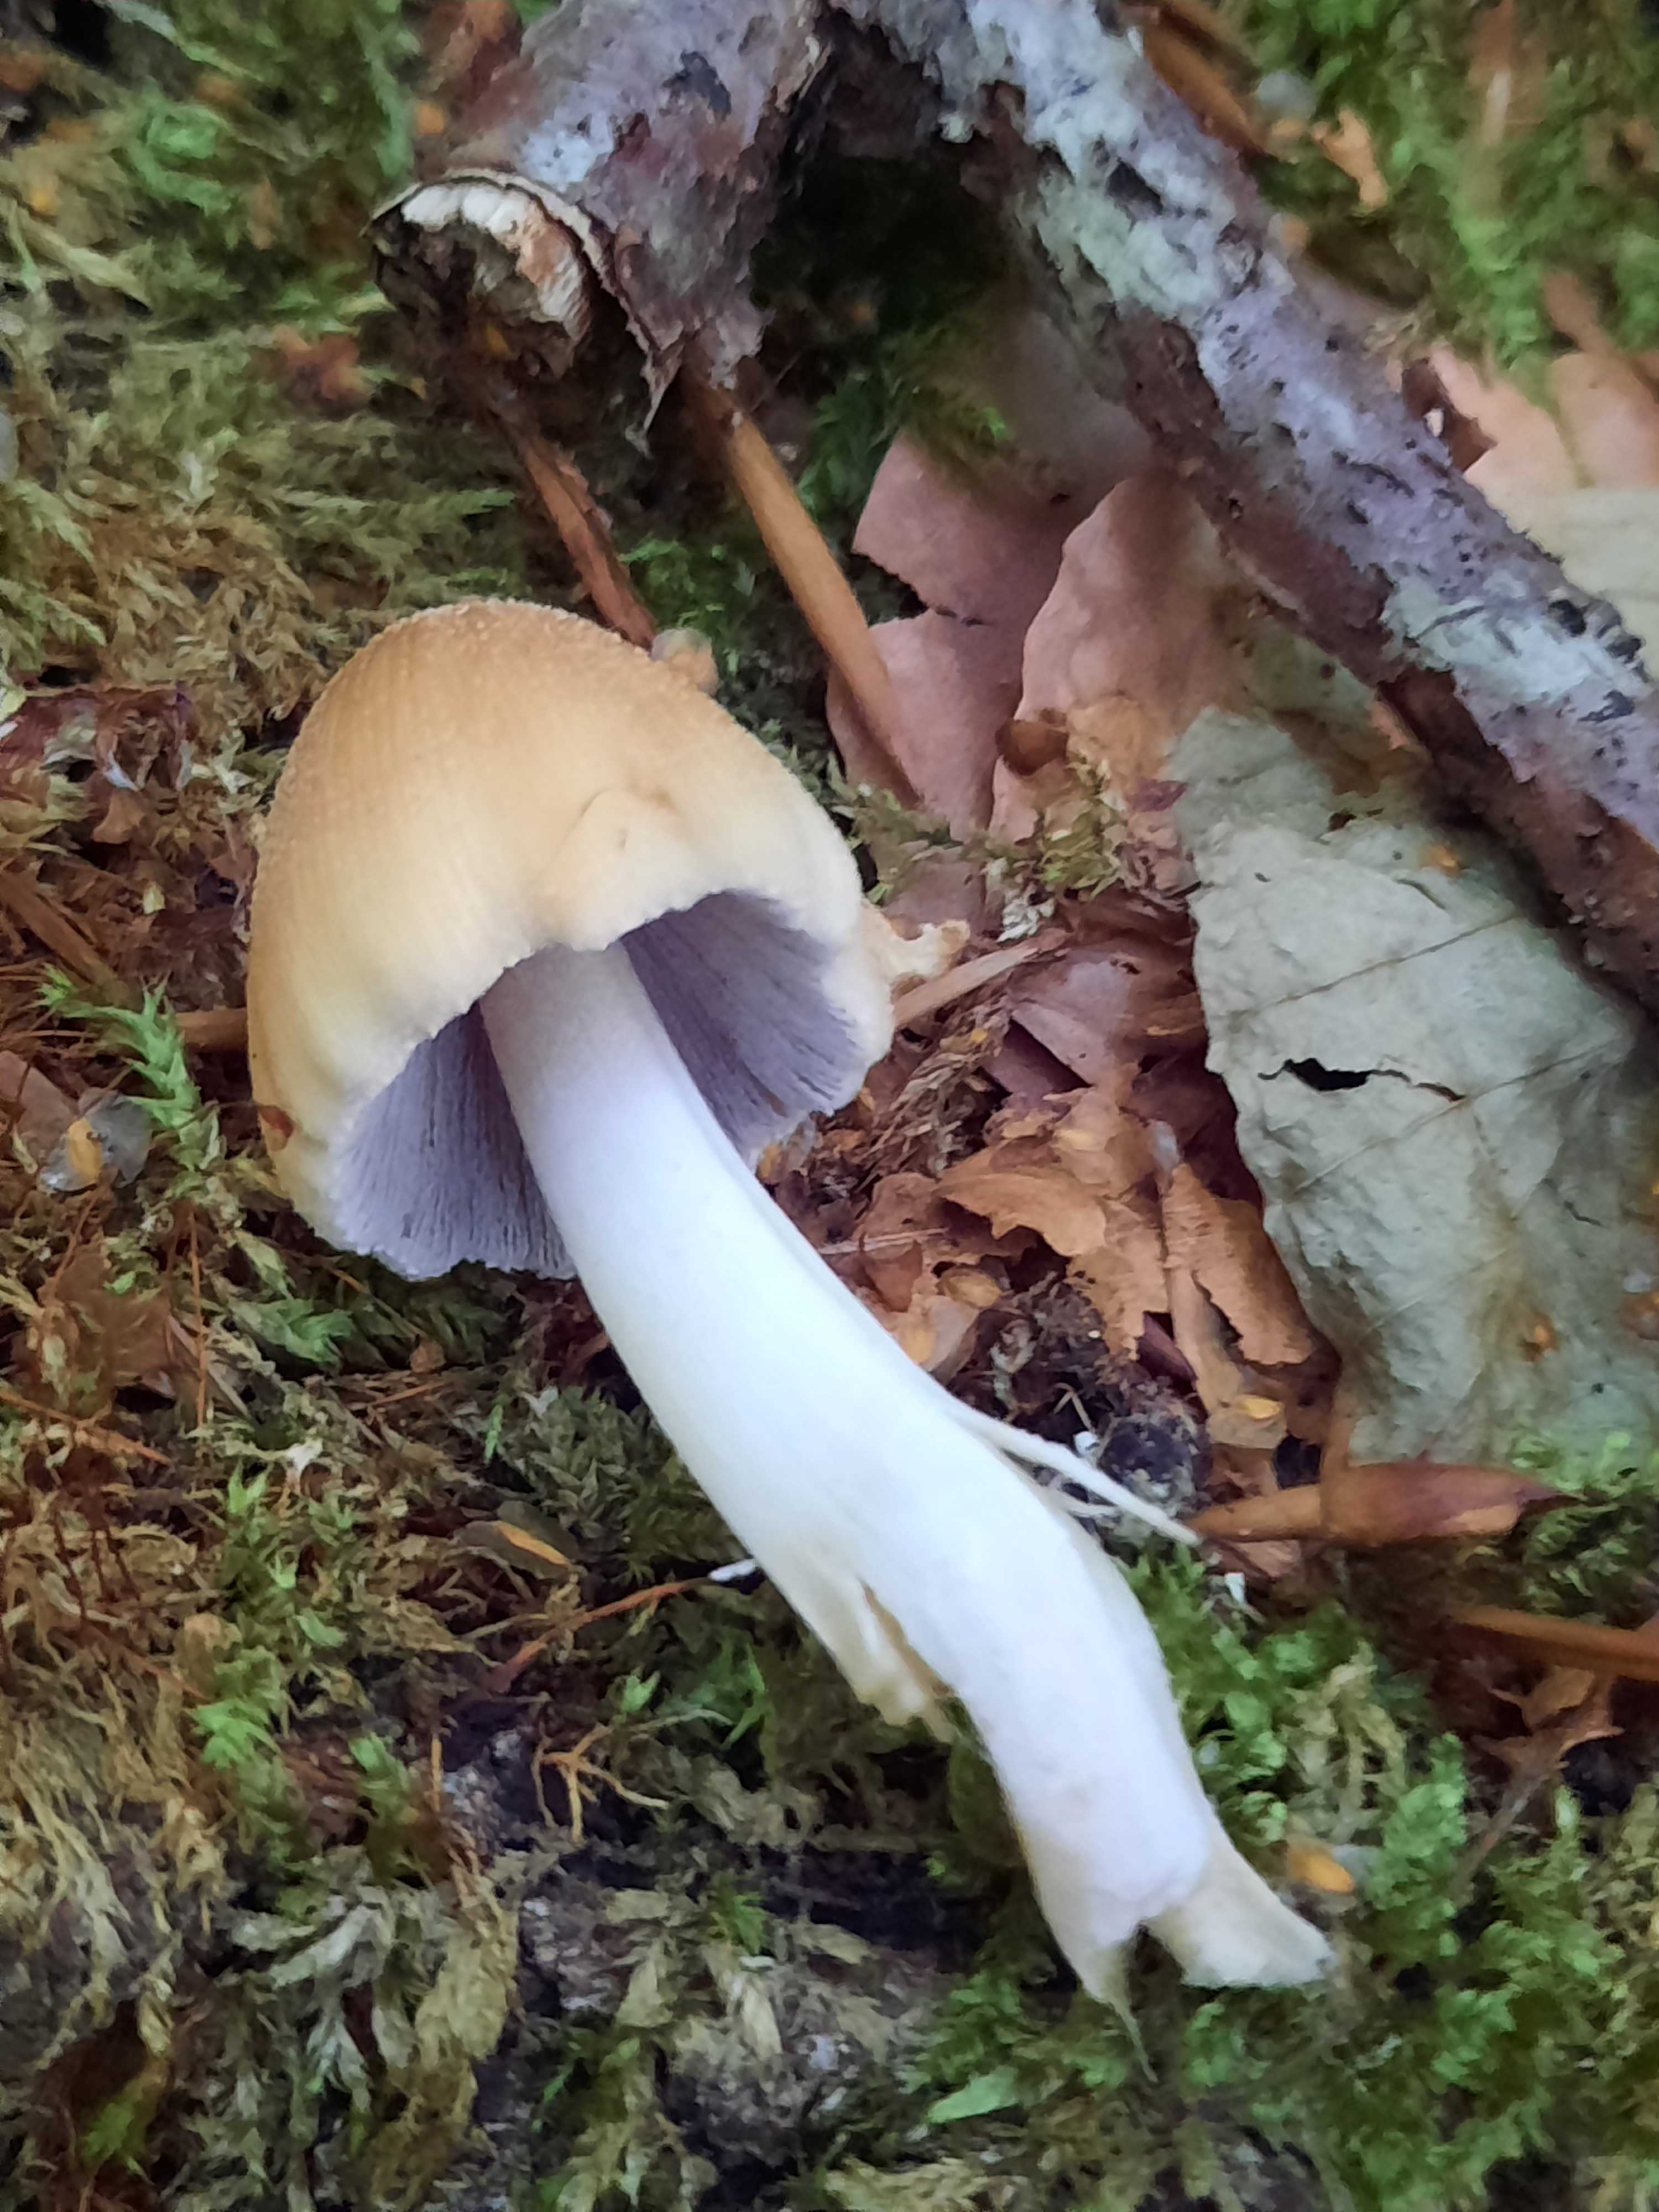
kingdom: Fungi
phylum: Basidiomycota
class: Agaricomycetes
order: Agaricales
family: Psathyrellaceae
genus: Coprinellus
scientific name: Coprinellus micaceus
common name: glimmer-blækhat
